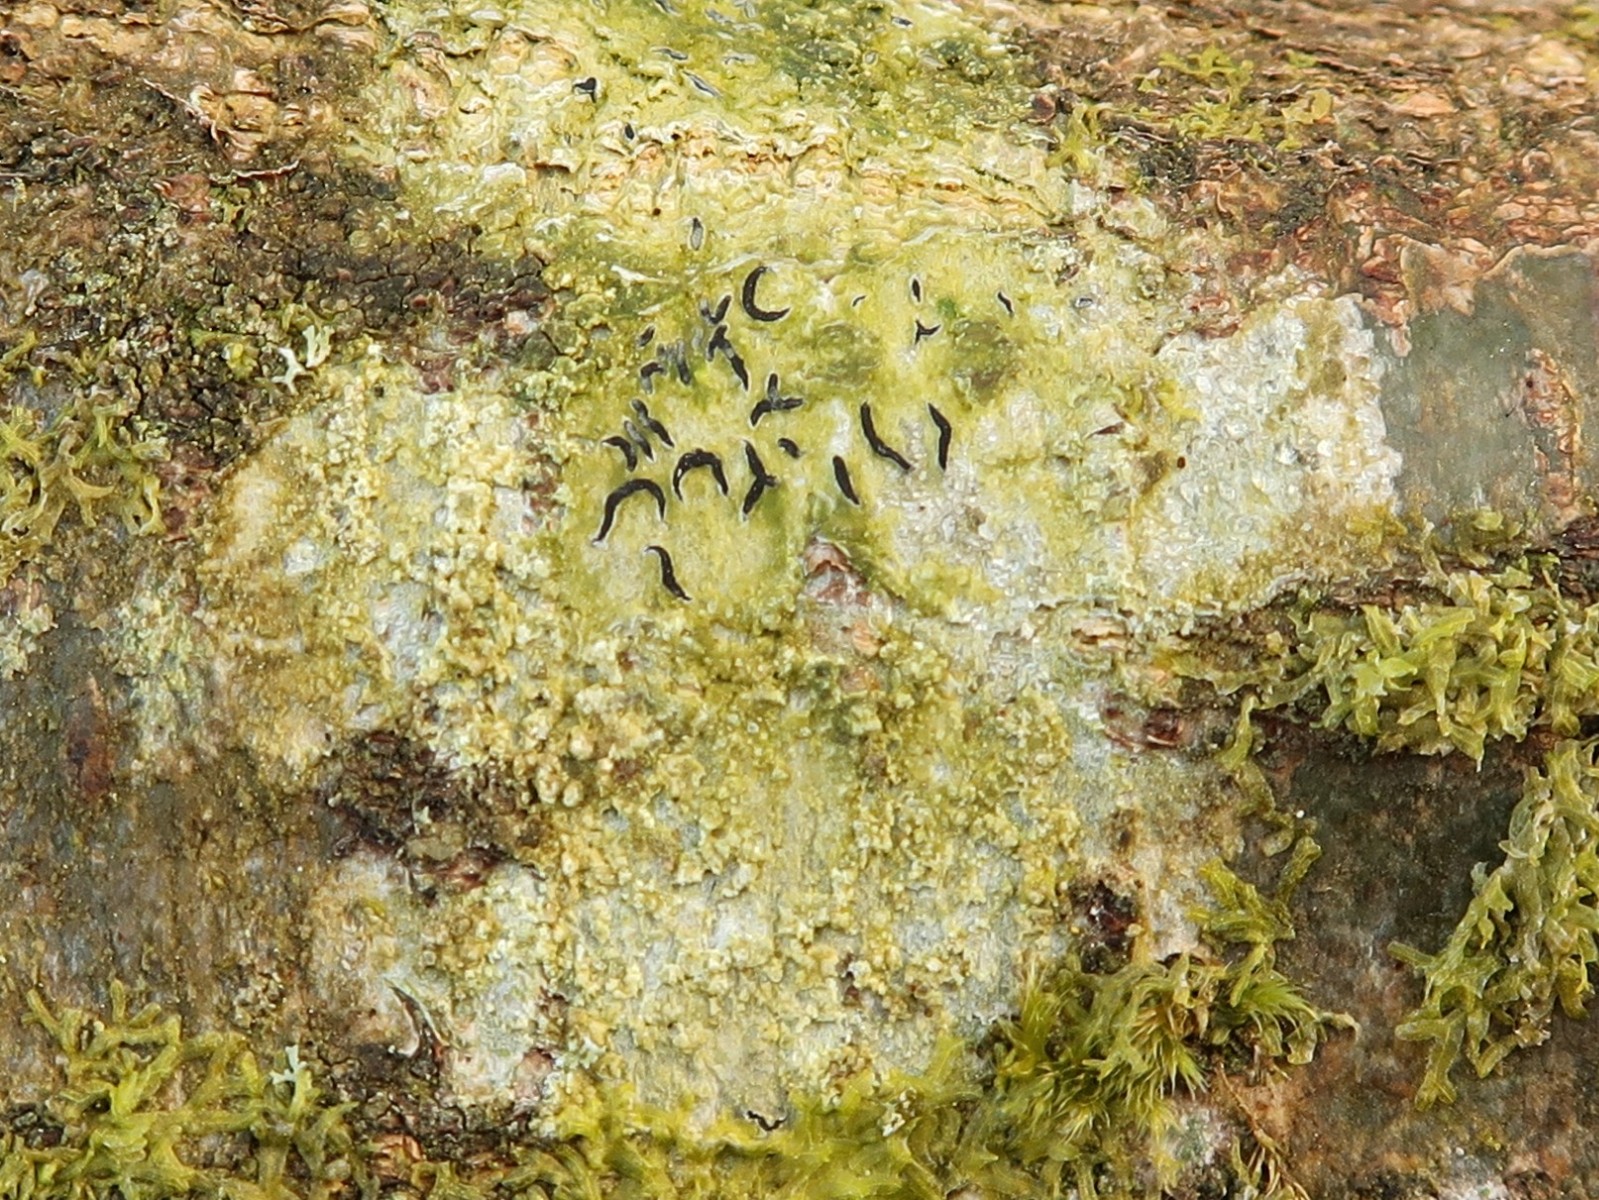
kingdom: Fungi
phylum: Ascomycota
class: Lecanoromycetes
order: Ostropales
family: Graphidaceae
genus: Graphis
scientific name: Graphis scripta
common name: almindelig skriftlav
